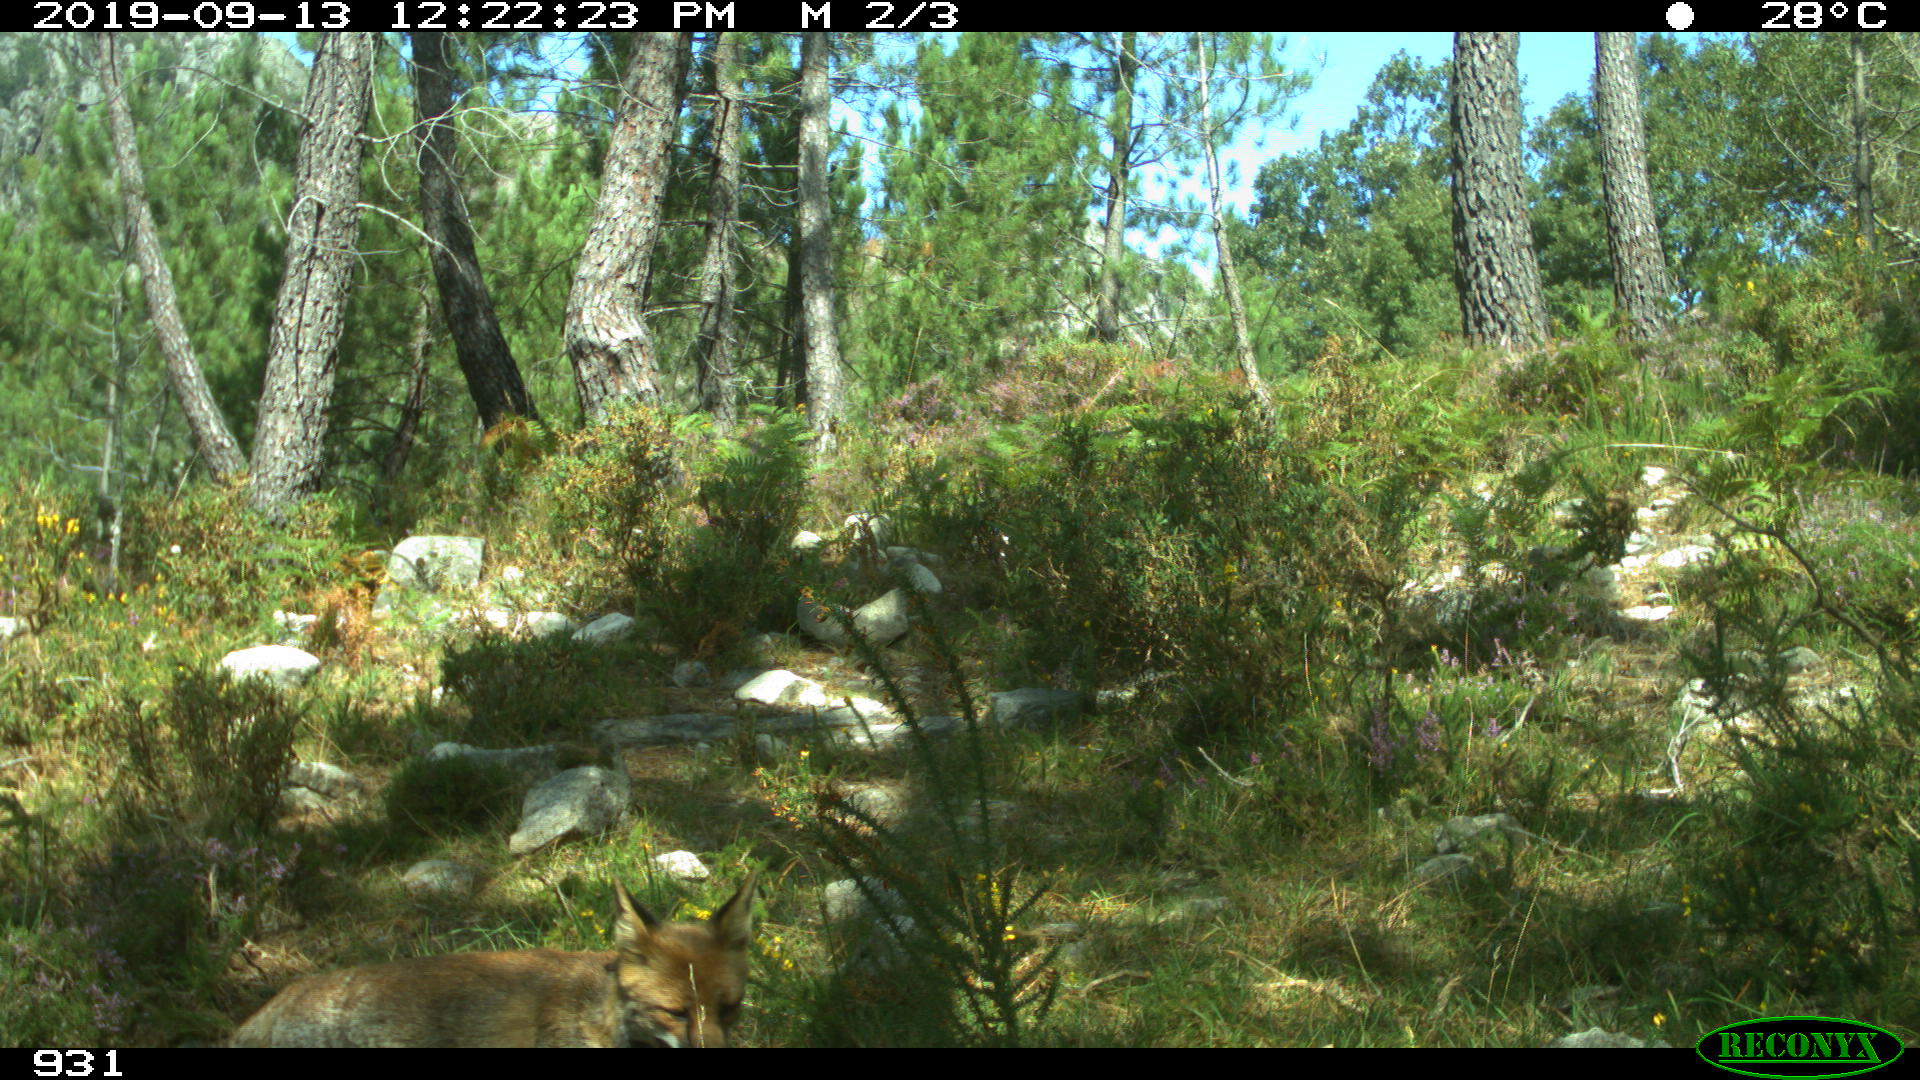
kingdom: Animalia
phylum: Chordata
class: Mammalia
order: Carnivora
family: Canidae
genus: Vulpes
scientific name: Vulpes vulpes
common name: Red fox
